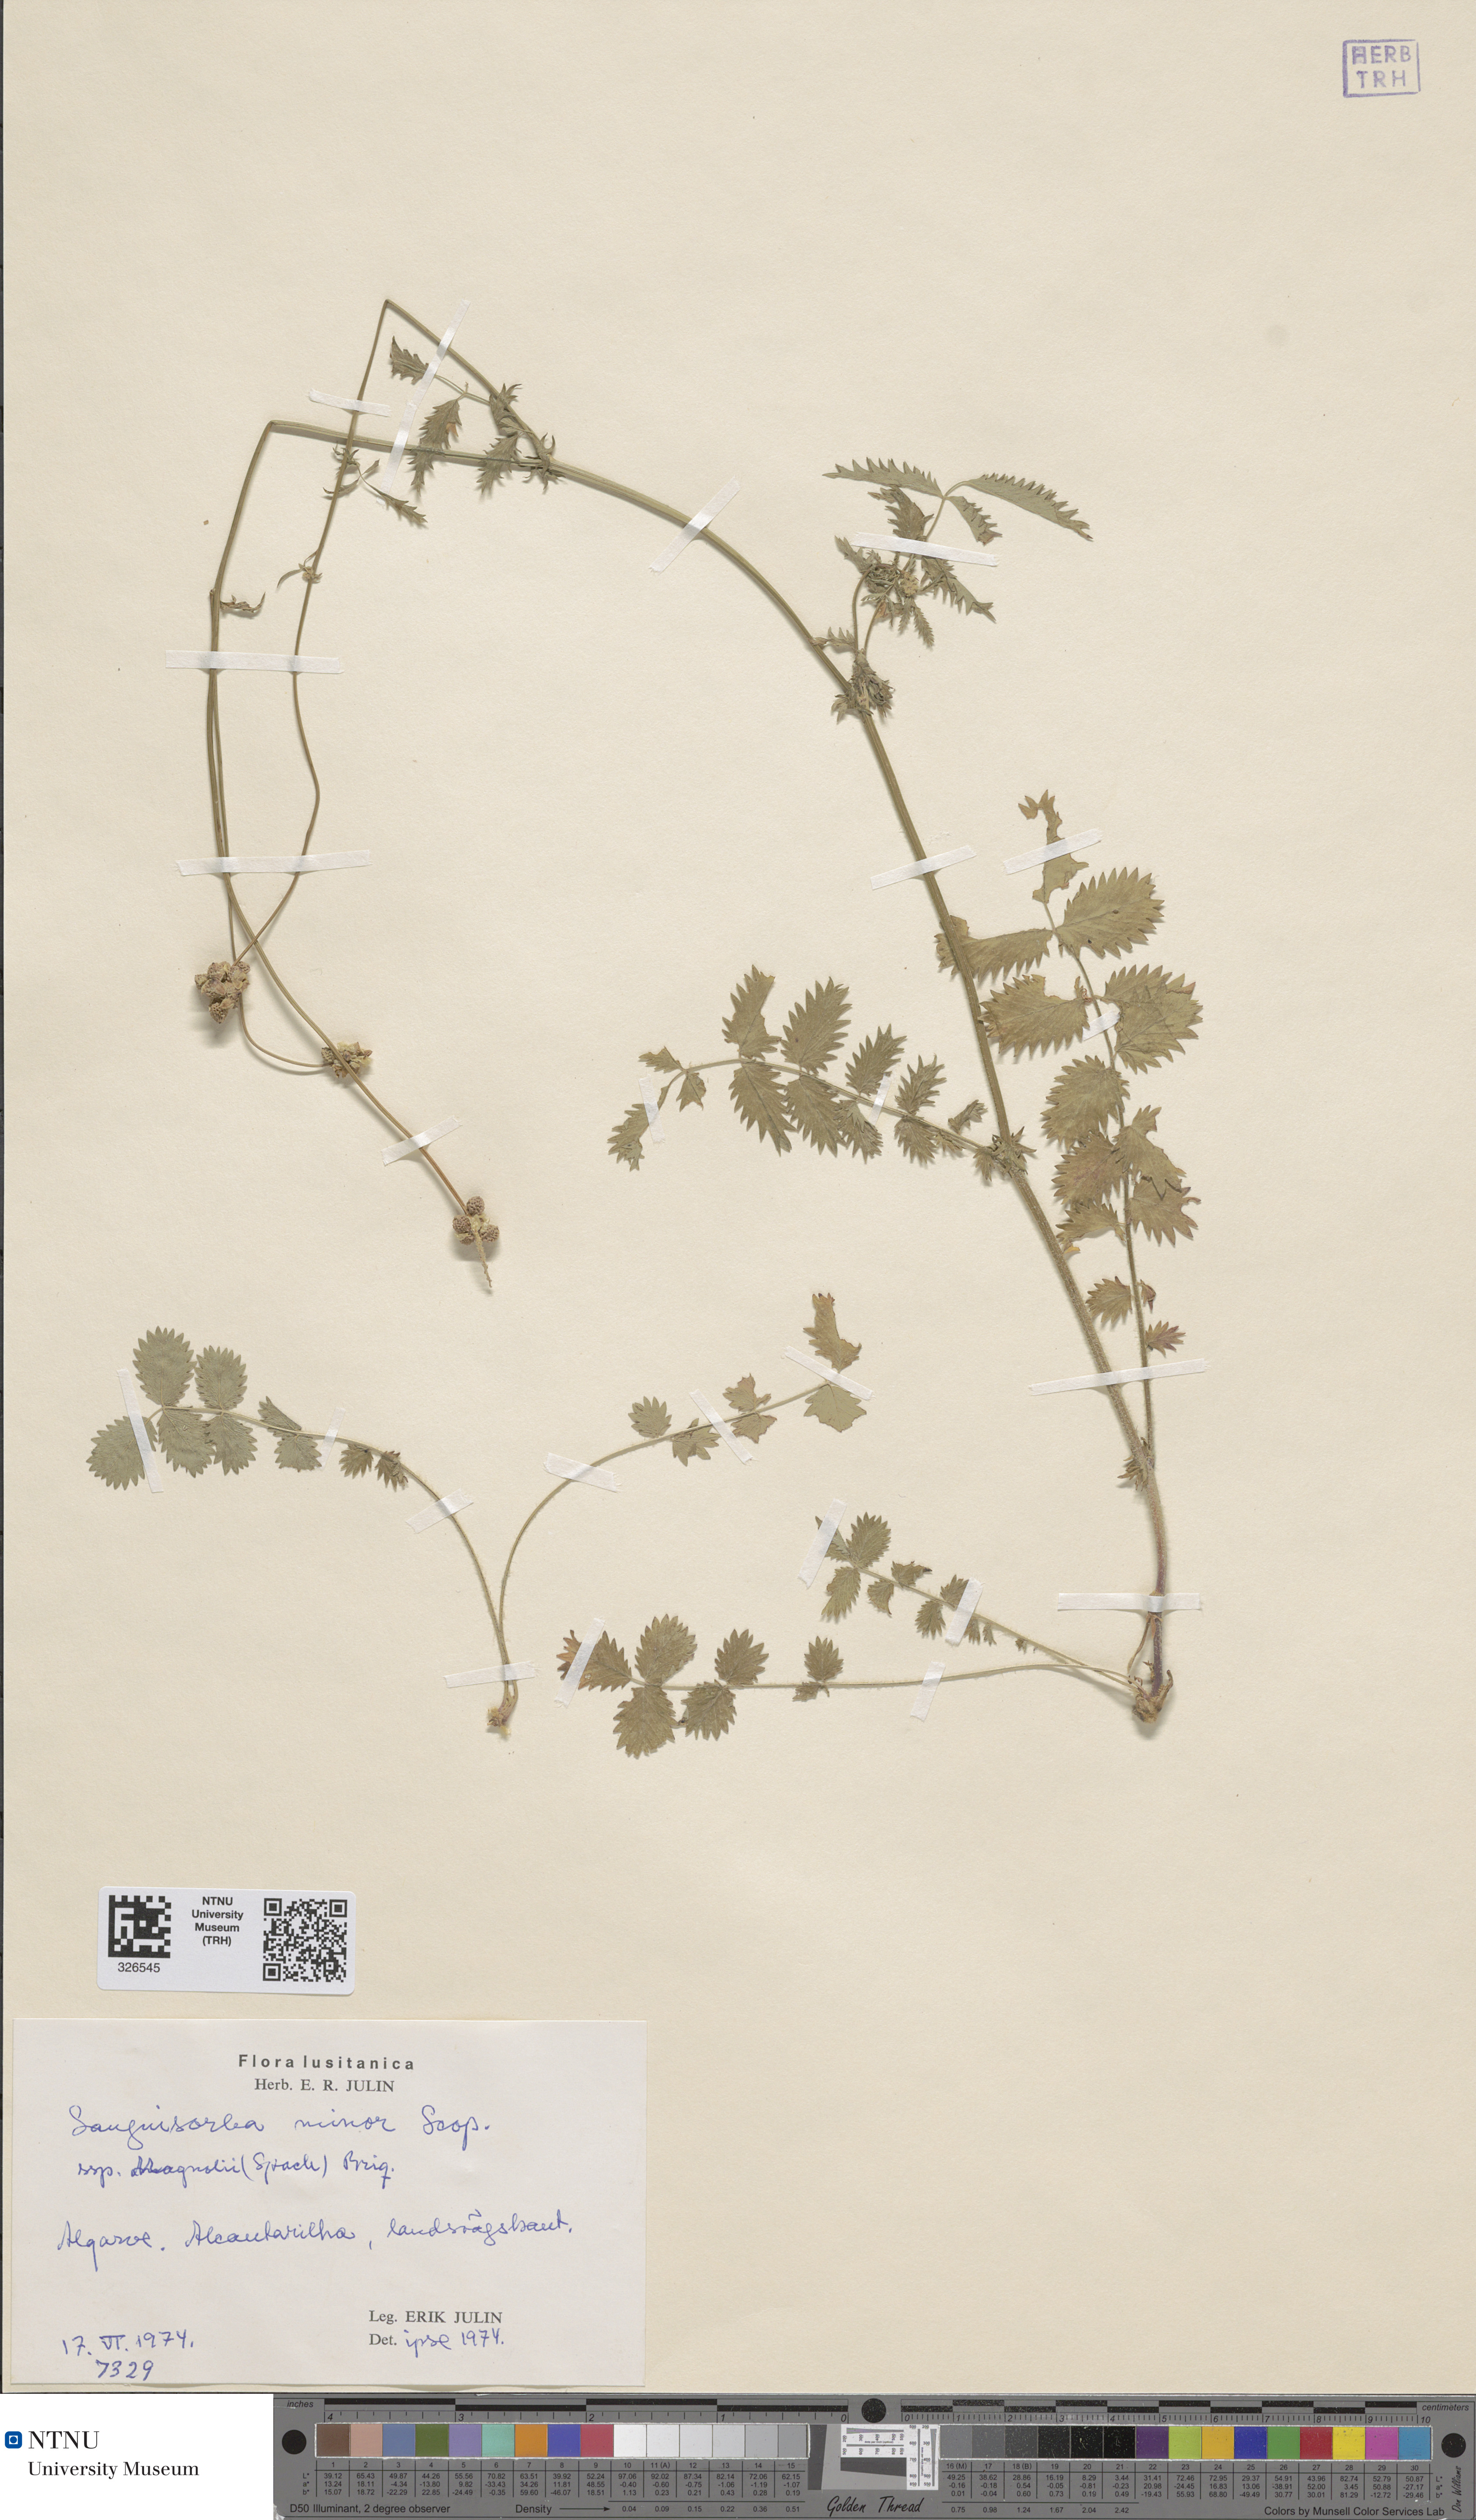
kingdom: Plantae
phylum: Tracheophyta
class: Magnoliopsida
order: Rosales
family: Rosaceae
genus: Poterium
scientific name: Poterium sanguisorba
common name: Salad burnet
